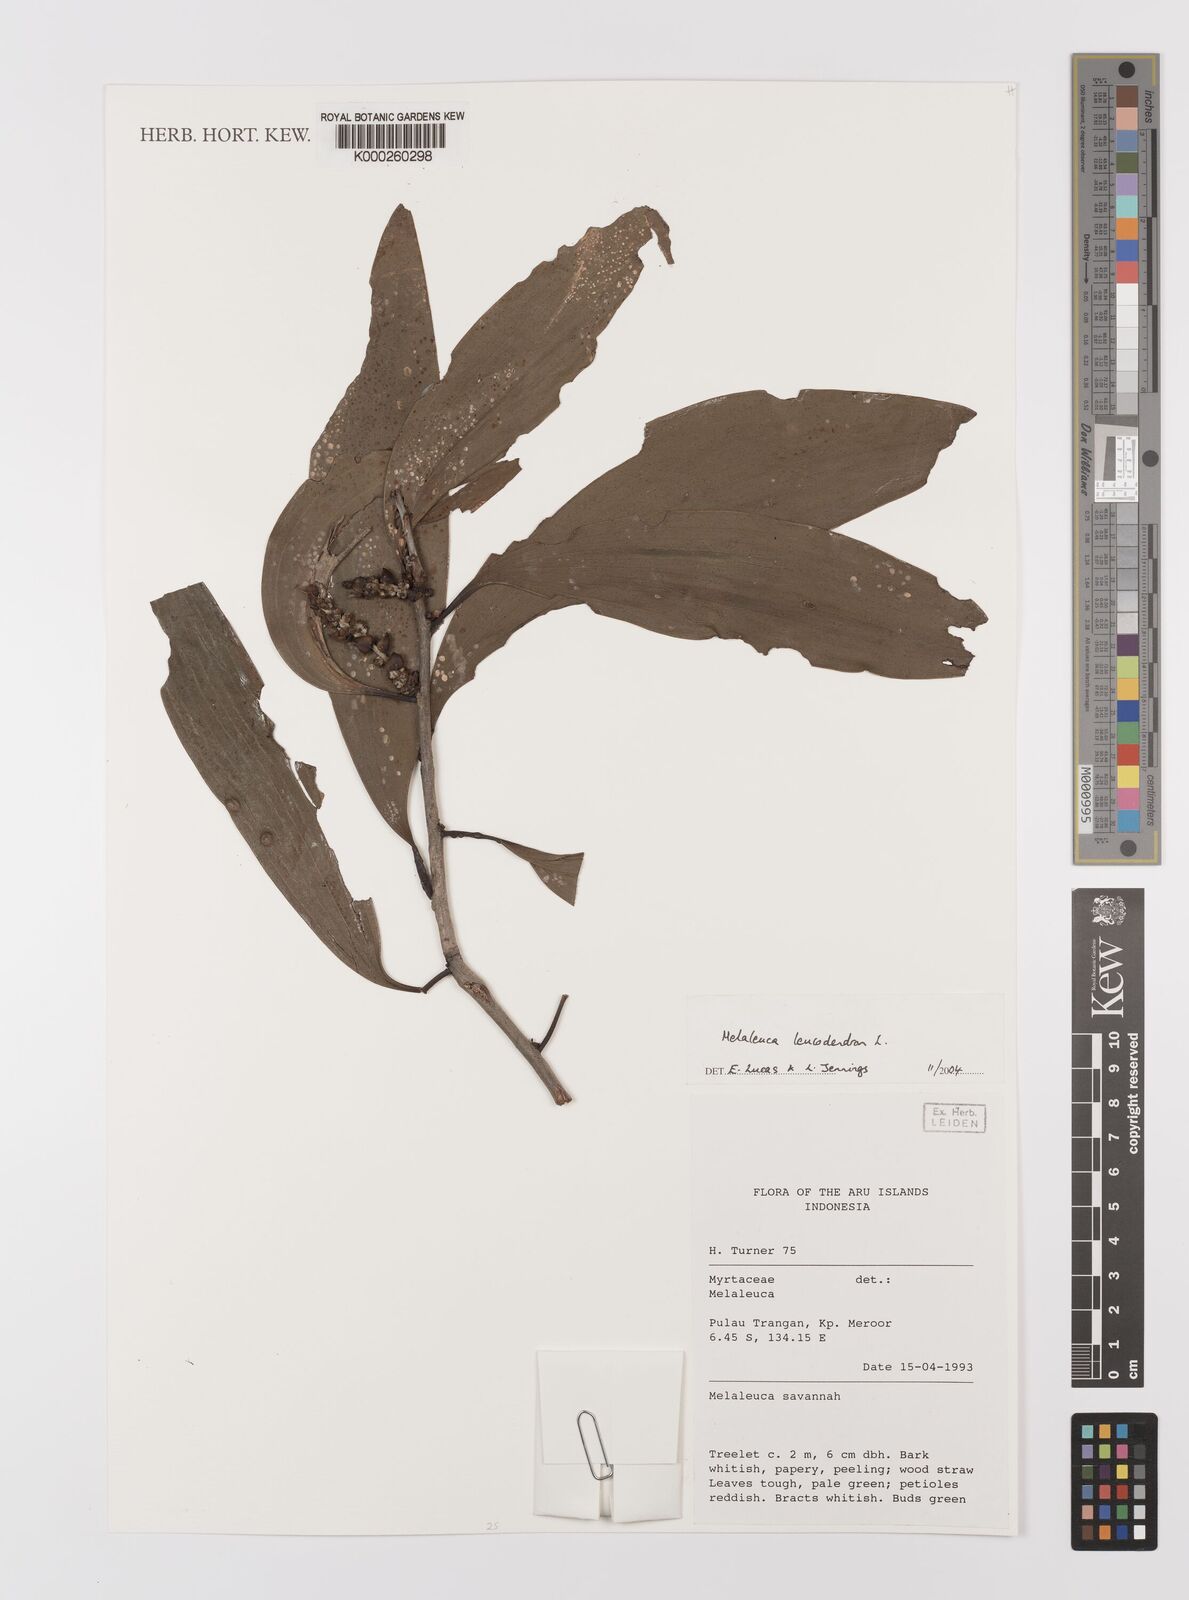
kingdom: Plantae
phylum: Tracheophyta
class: Magnoliopsida
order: Myrtales
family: Myrtaceae
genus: Melaleuca
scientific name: Melaleuca
